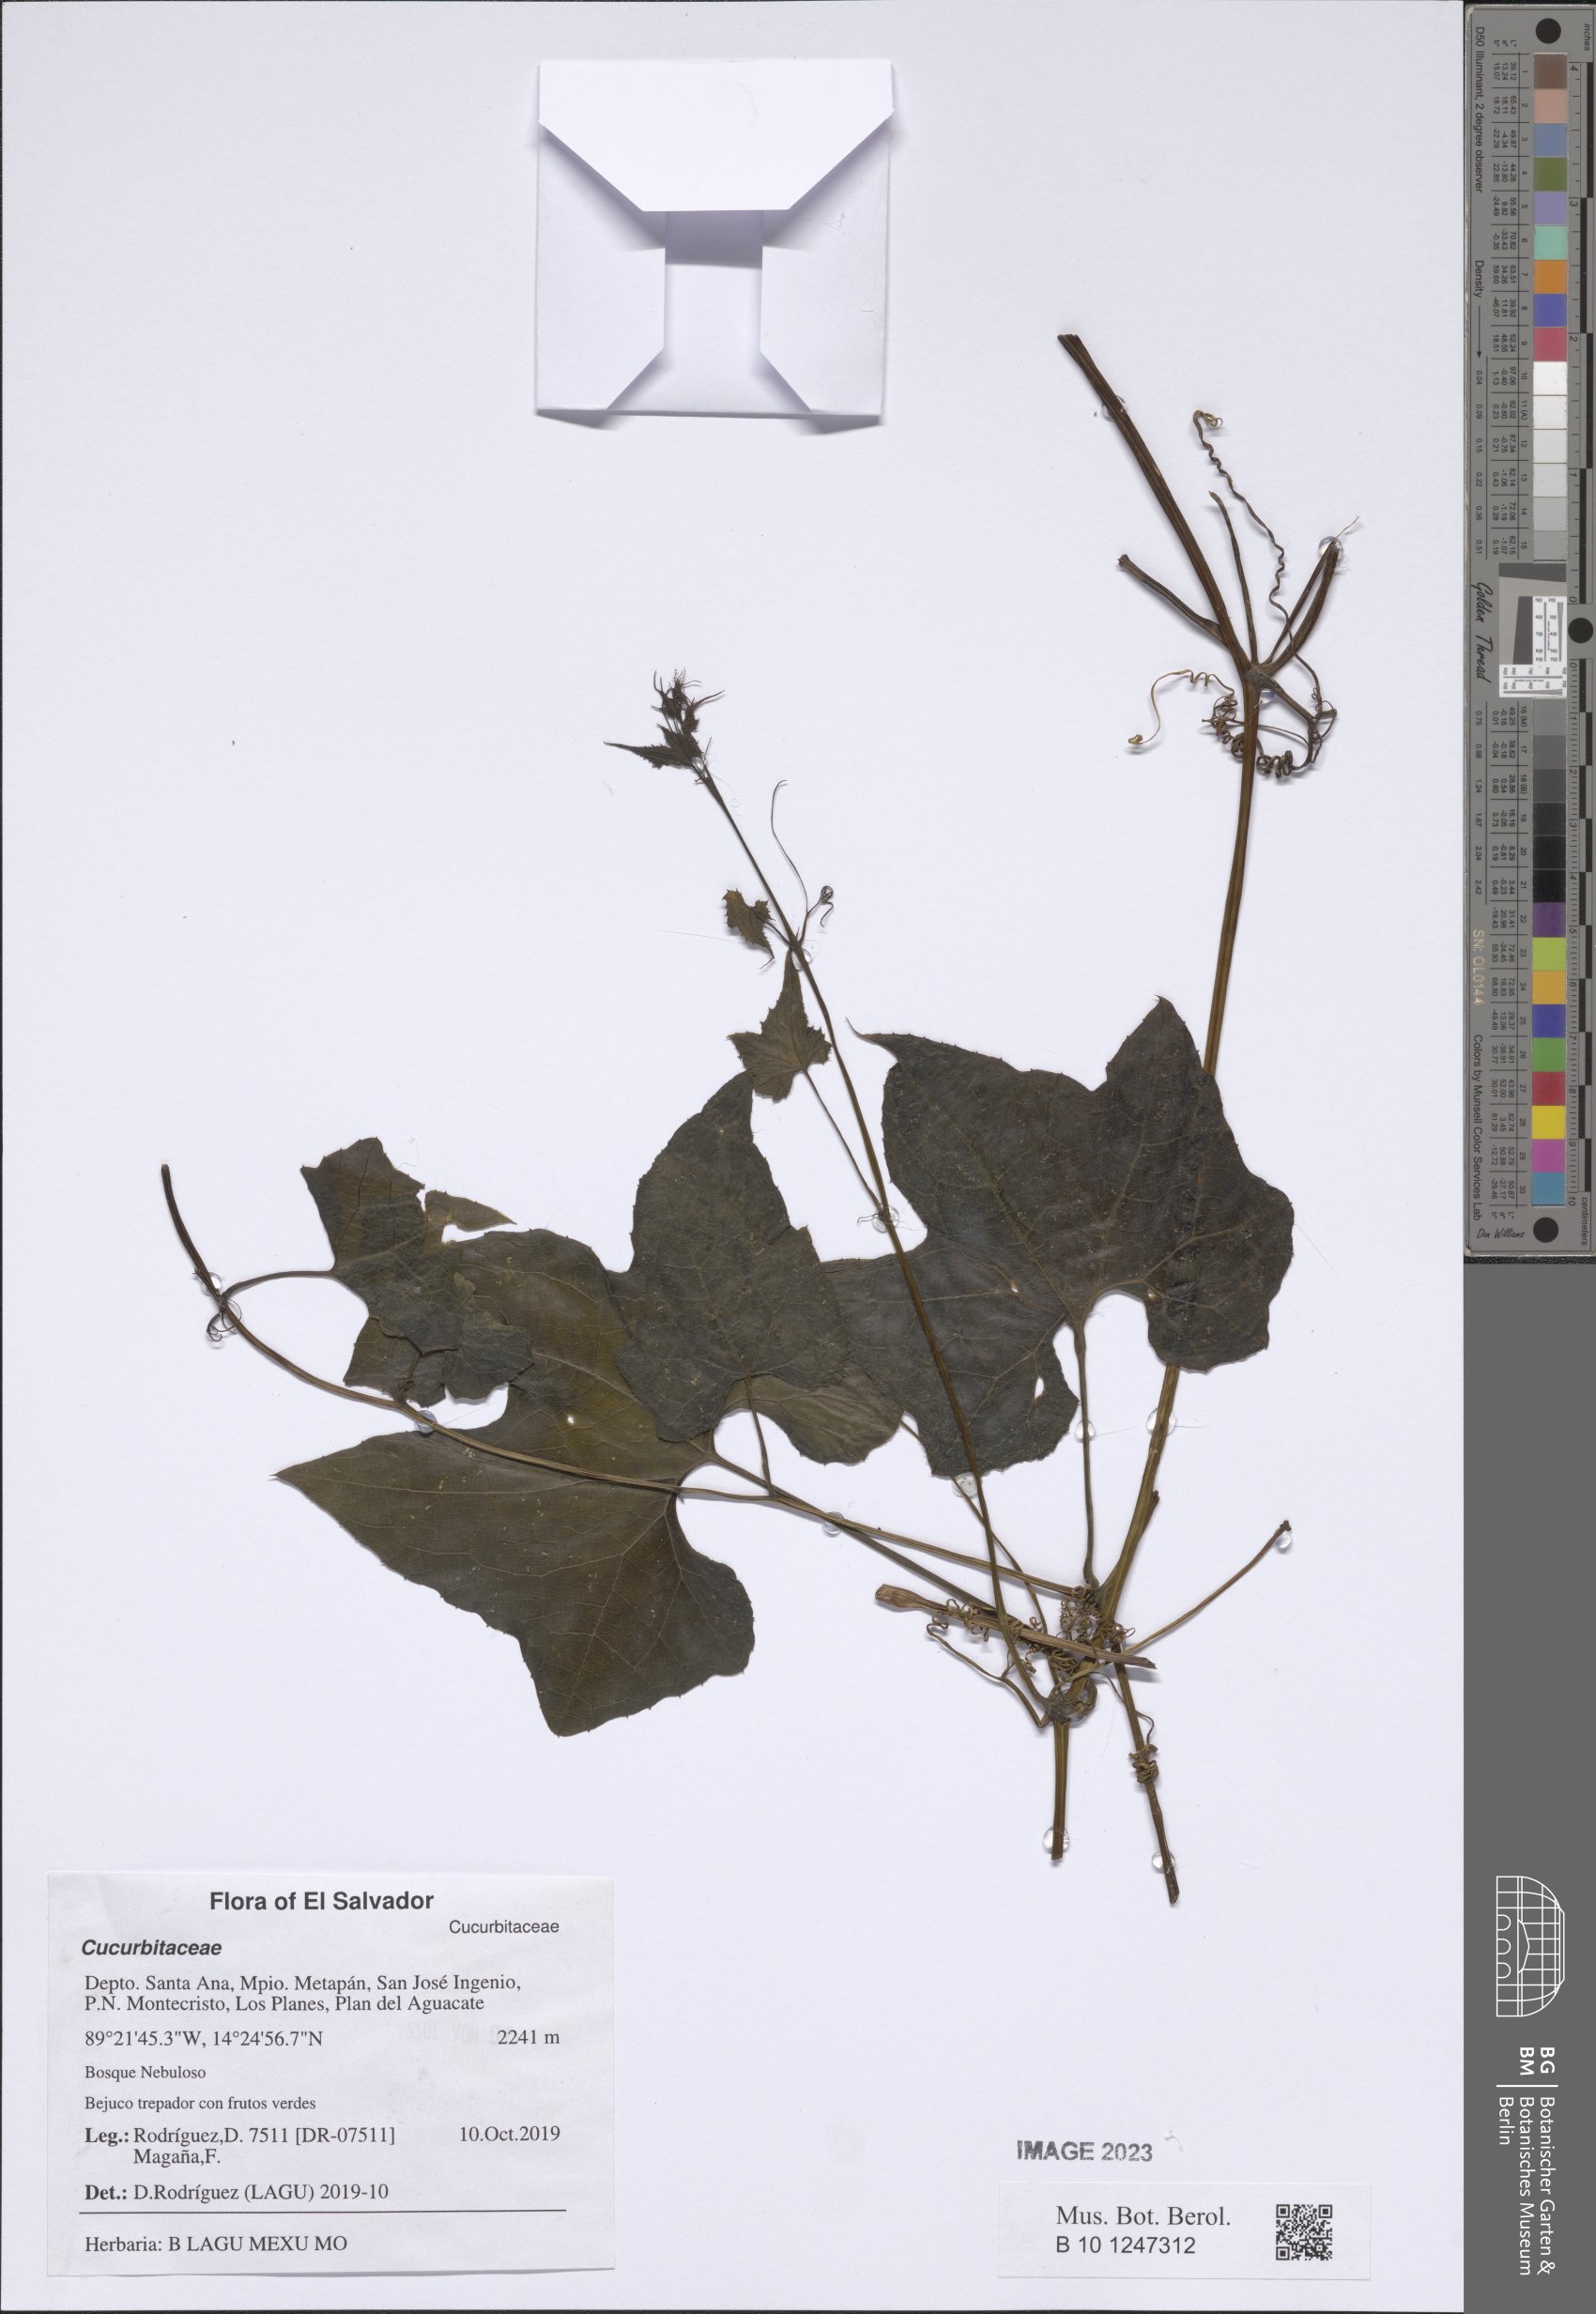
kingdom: Plantae
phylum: Tracheophyta
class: Magnoliopsida
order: Cucurbitales
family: Cucurbitaceae
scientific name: Cucurbitaceae
